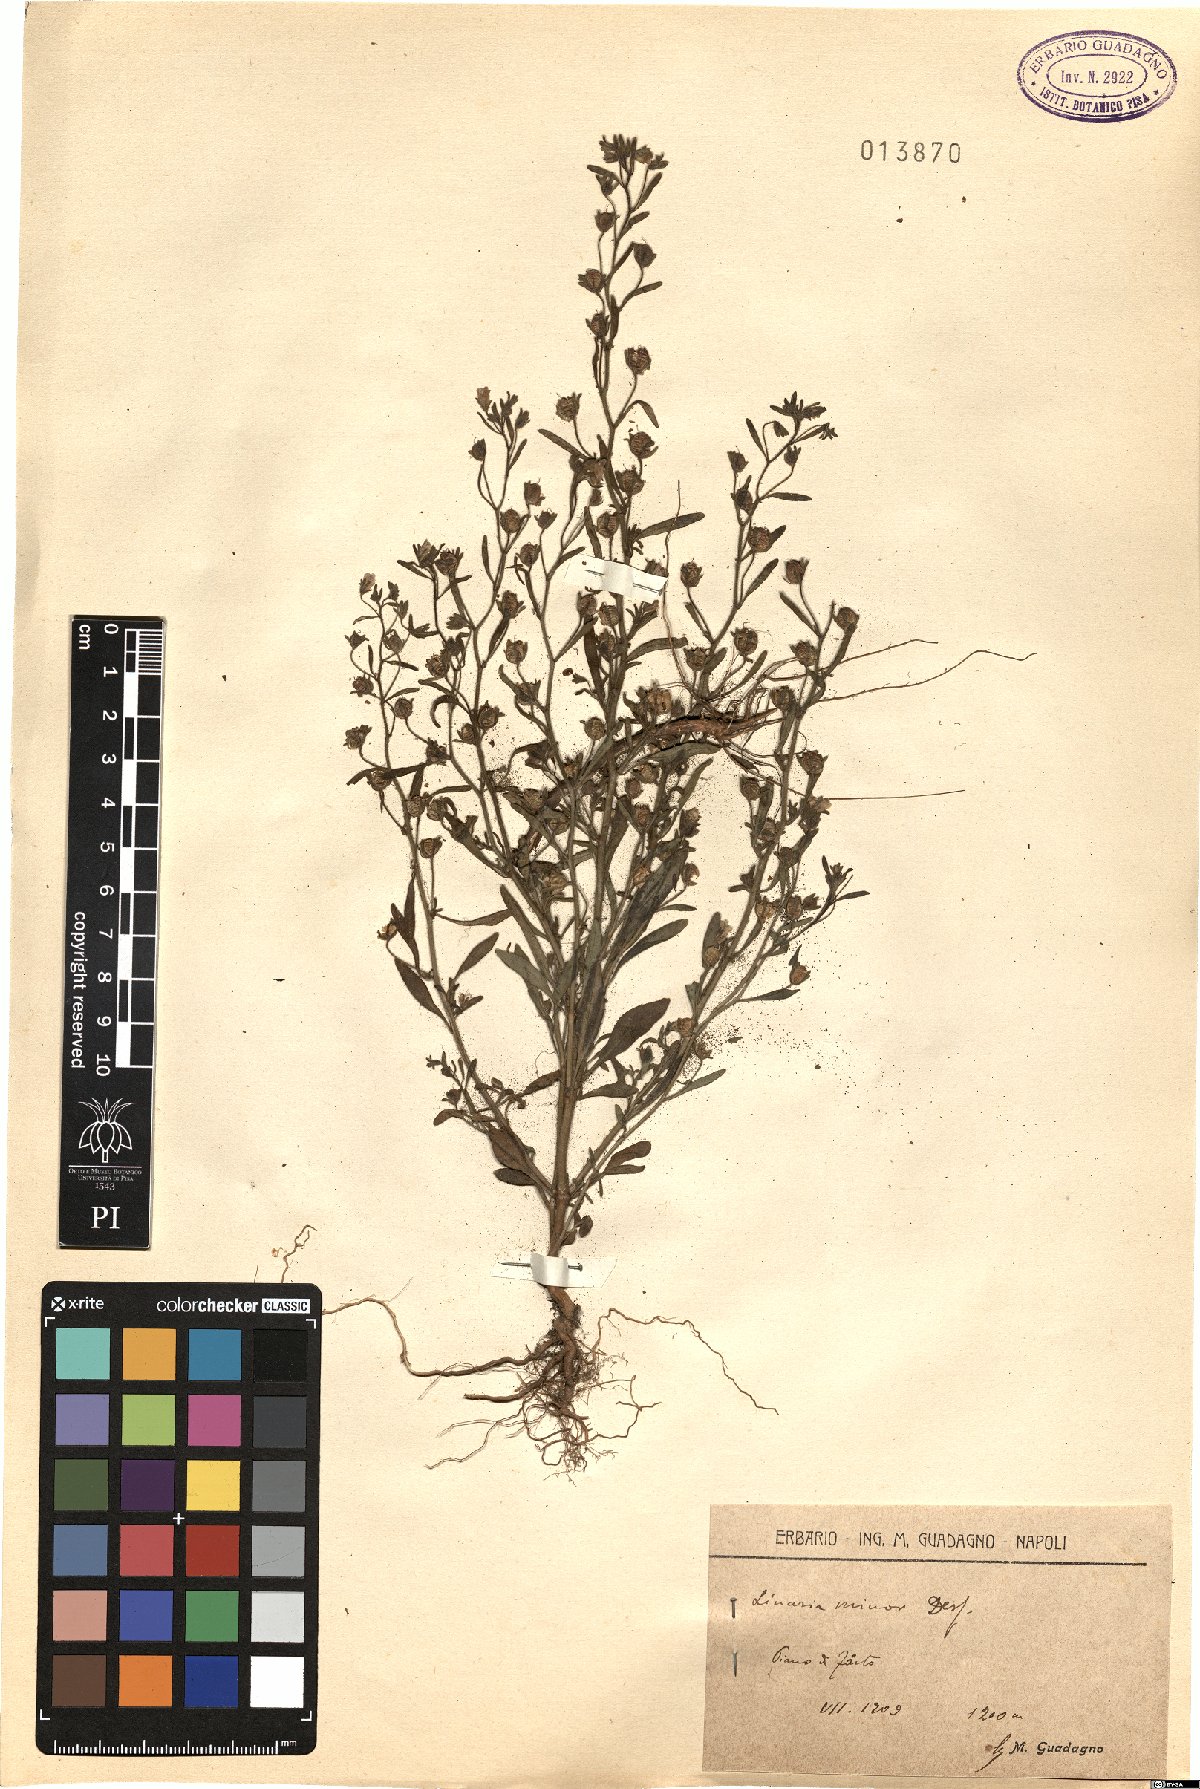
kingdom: Plantae
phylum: Tracheophyta
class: Magnoliopsida
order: Lamiales
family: Plantaginaceae
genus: Chaenorhinum
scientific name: Chaenorhinum minus
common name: Dwarf snapdragon
